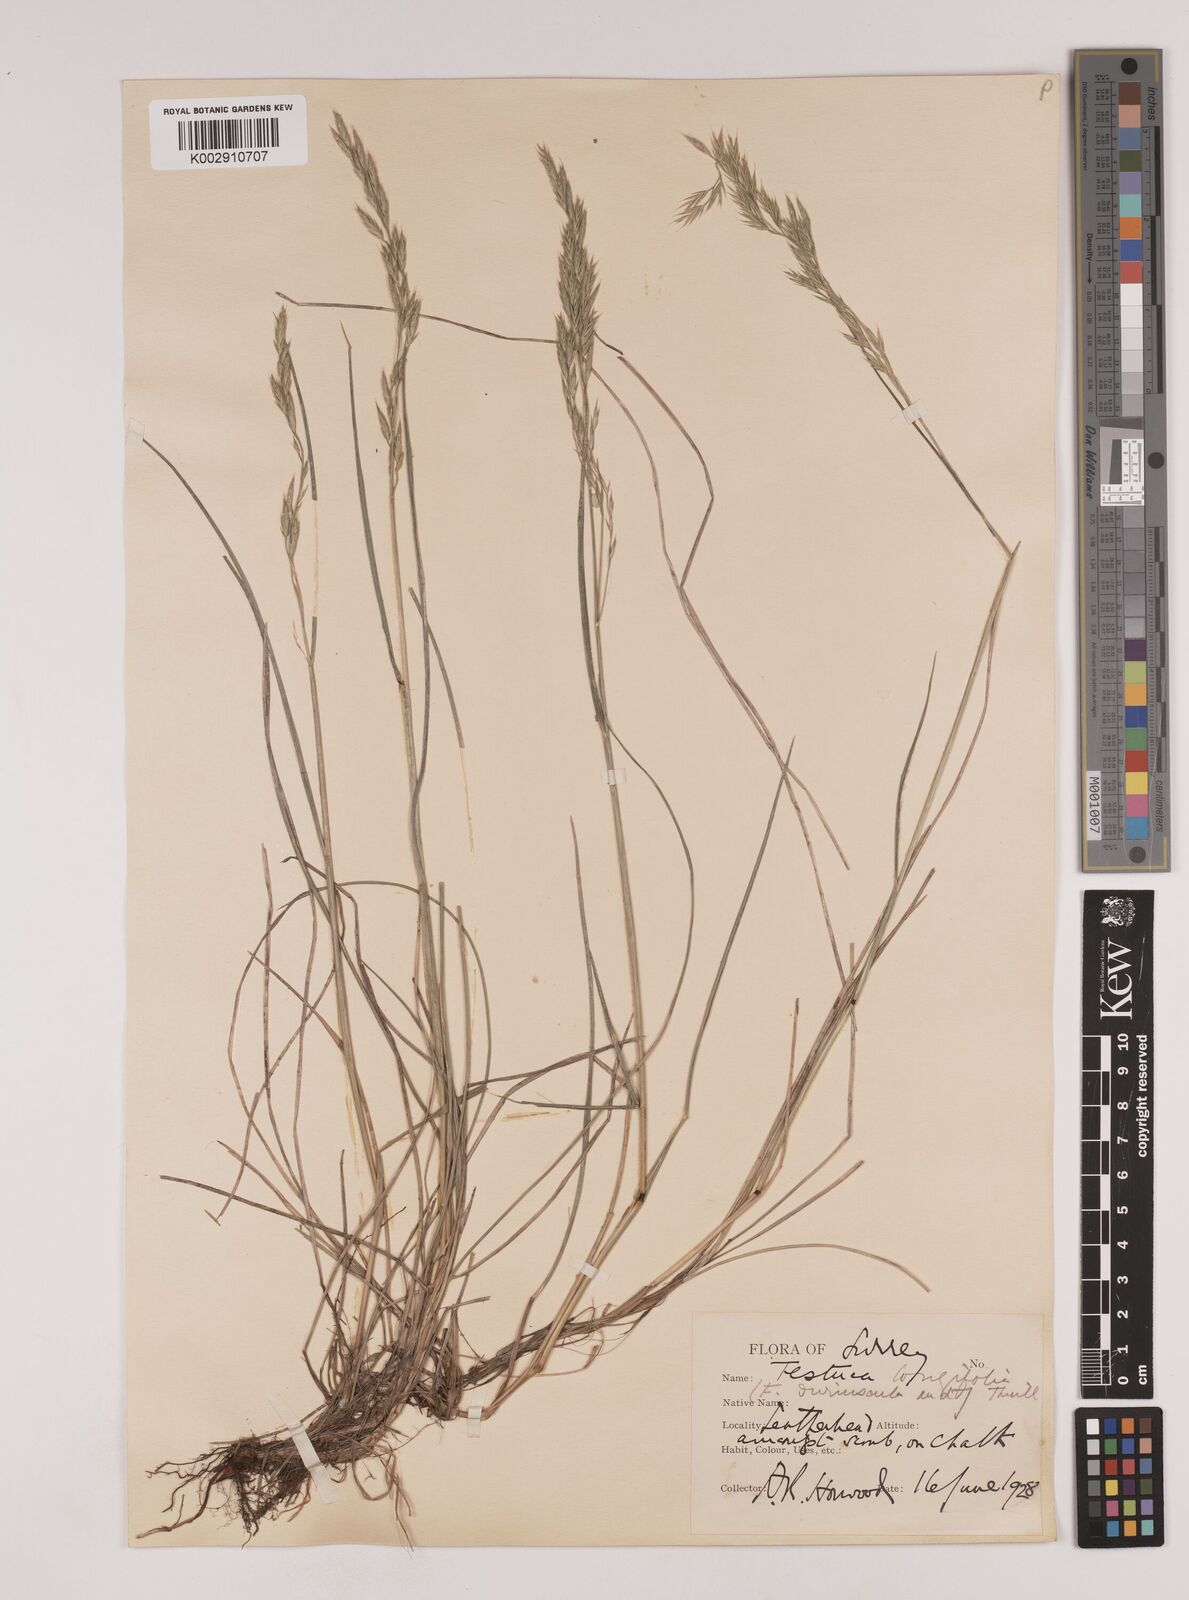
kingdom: Plantae
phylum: Tracheophyta
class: Liliopsida
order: Poales
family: Poaceae
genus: Festuca
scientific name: Festuca rubra
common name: Red fescue
